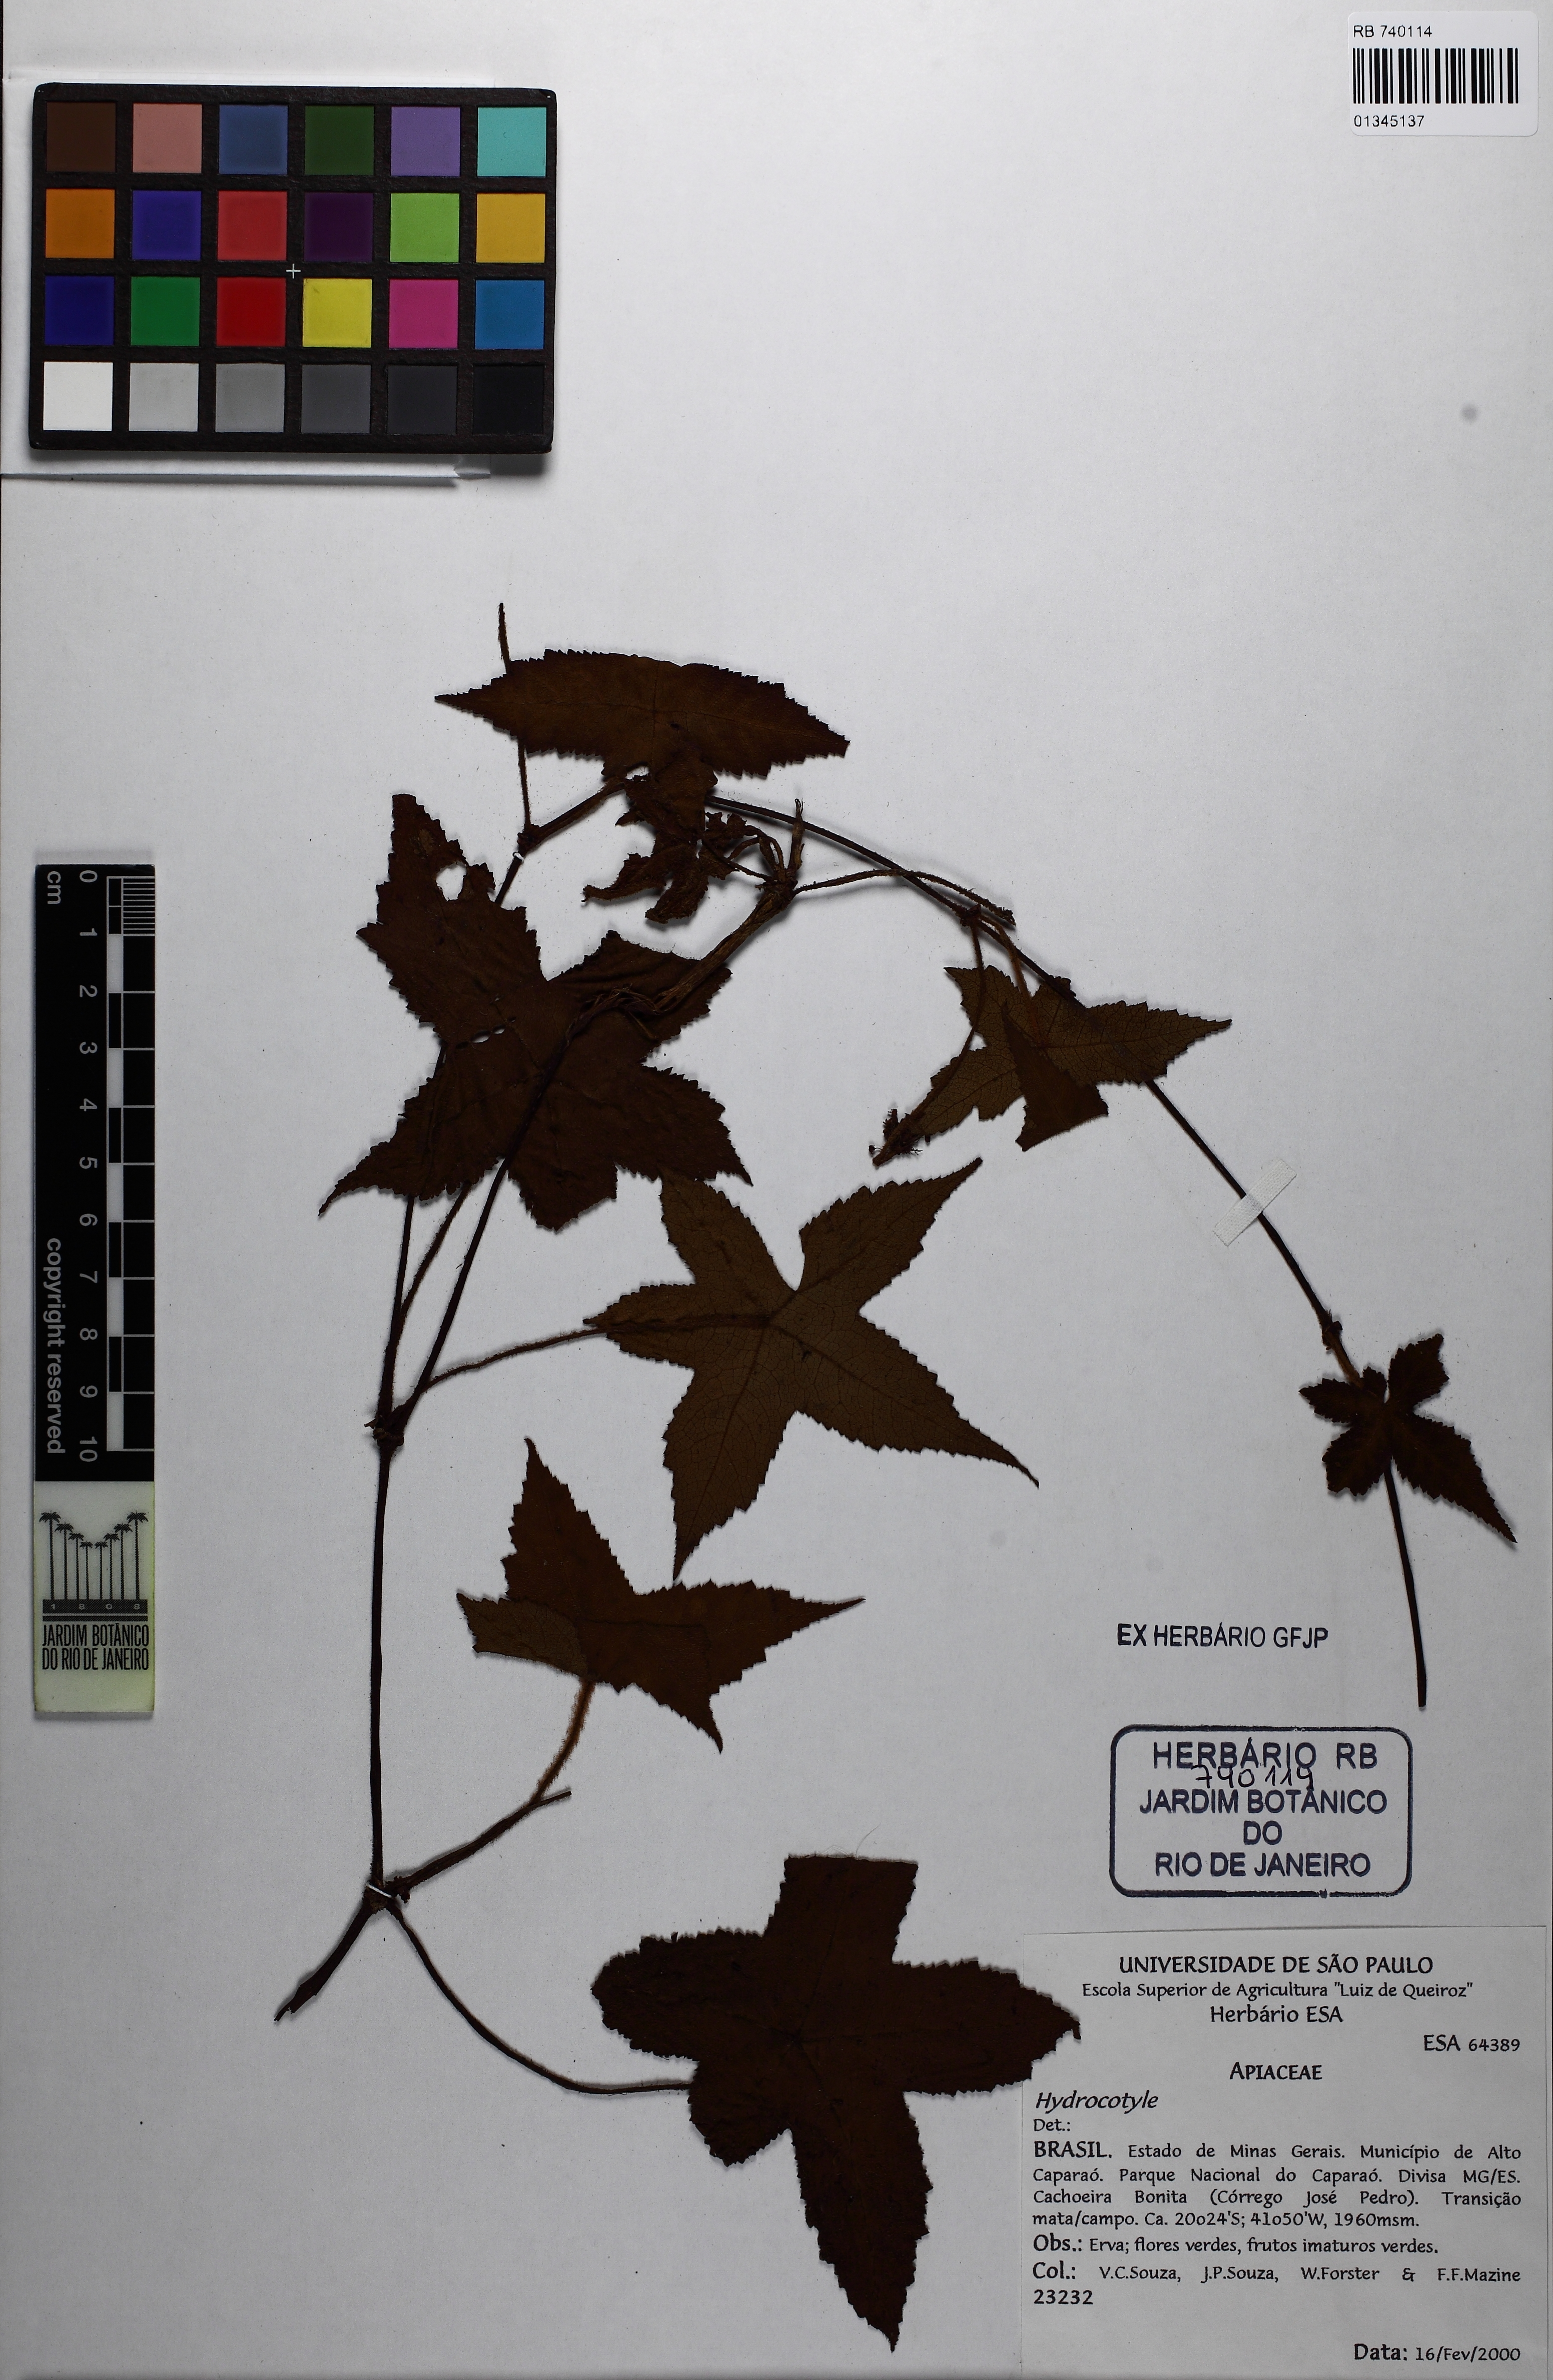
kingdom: Plantae
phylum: Tracheophyta
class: Magnoliopsida
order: Apiales
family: Apiaceae
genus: Hydrocotile
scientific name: Hydrocotile
